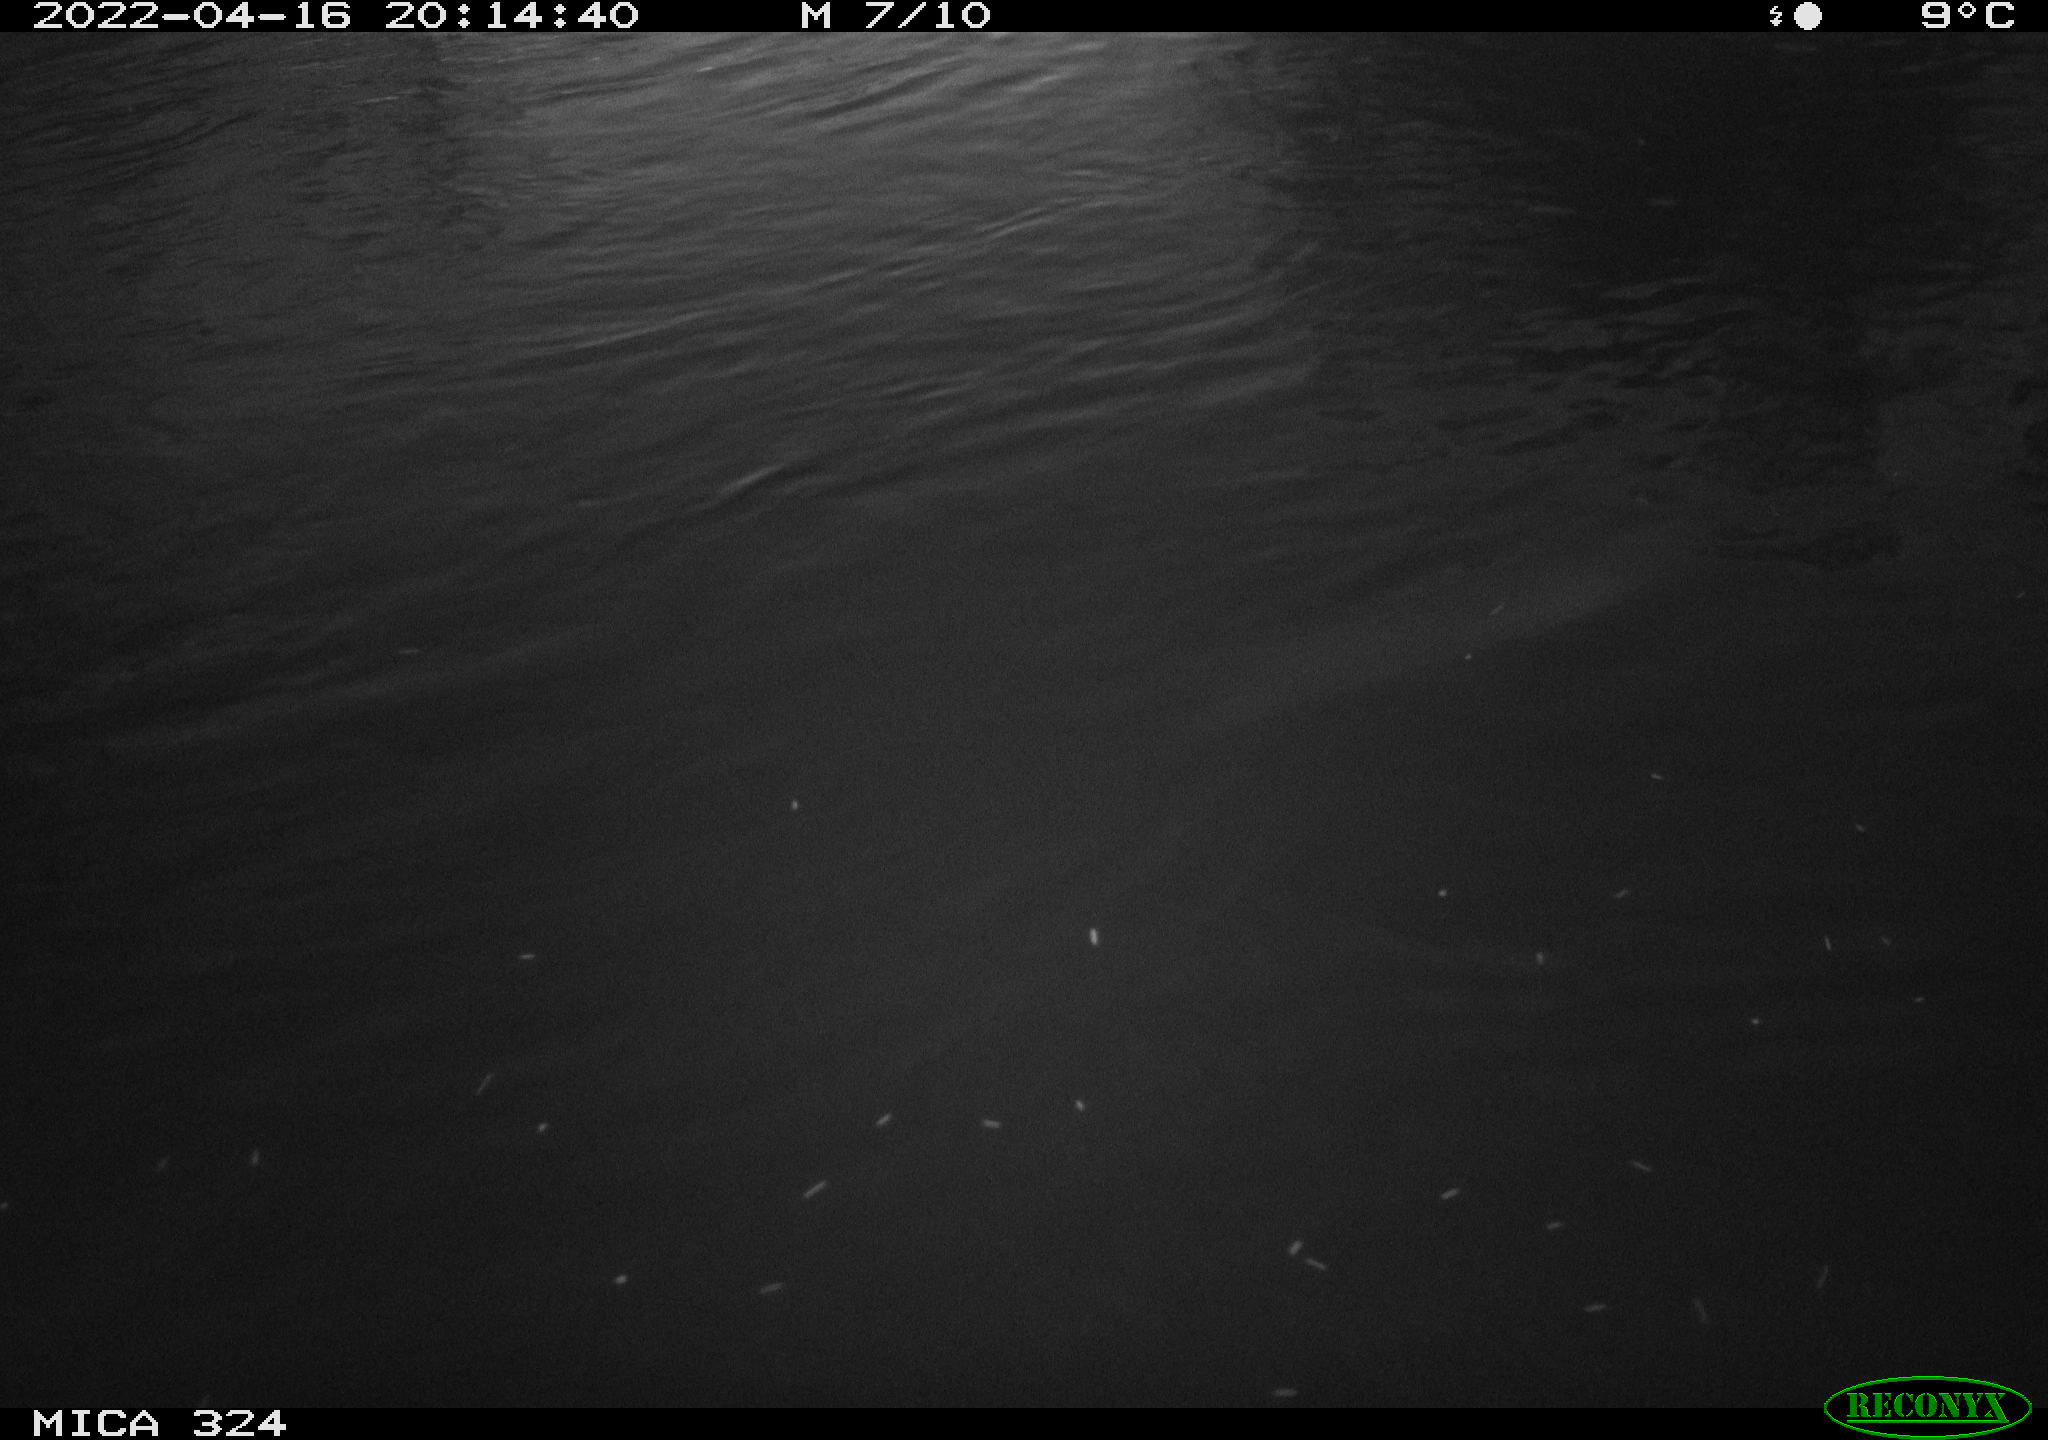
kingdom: Animalia
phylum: Chordata
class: Mammalia
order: Rodentia
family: Cricetidae
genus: Ondatra
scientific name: Ondatra zibethicus
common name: Muskrat
